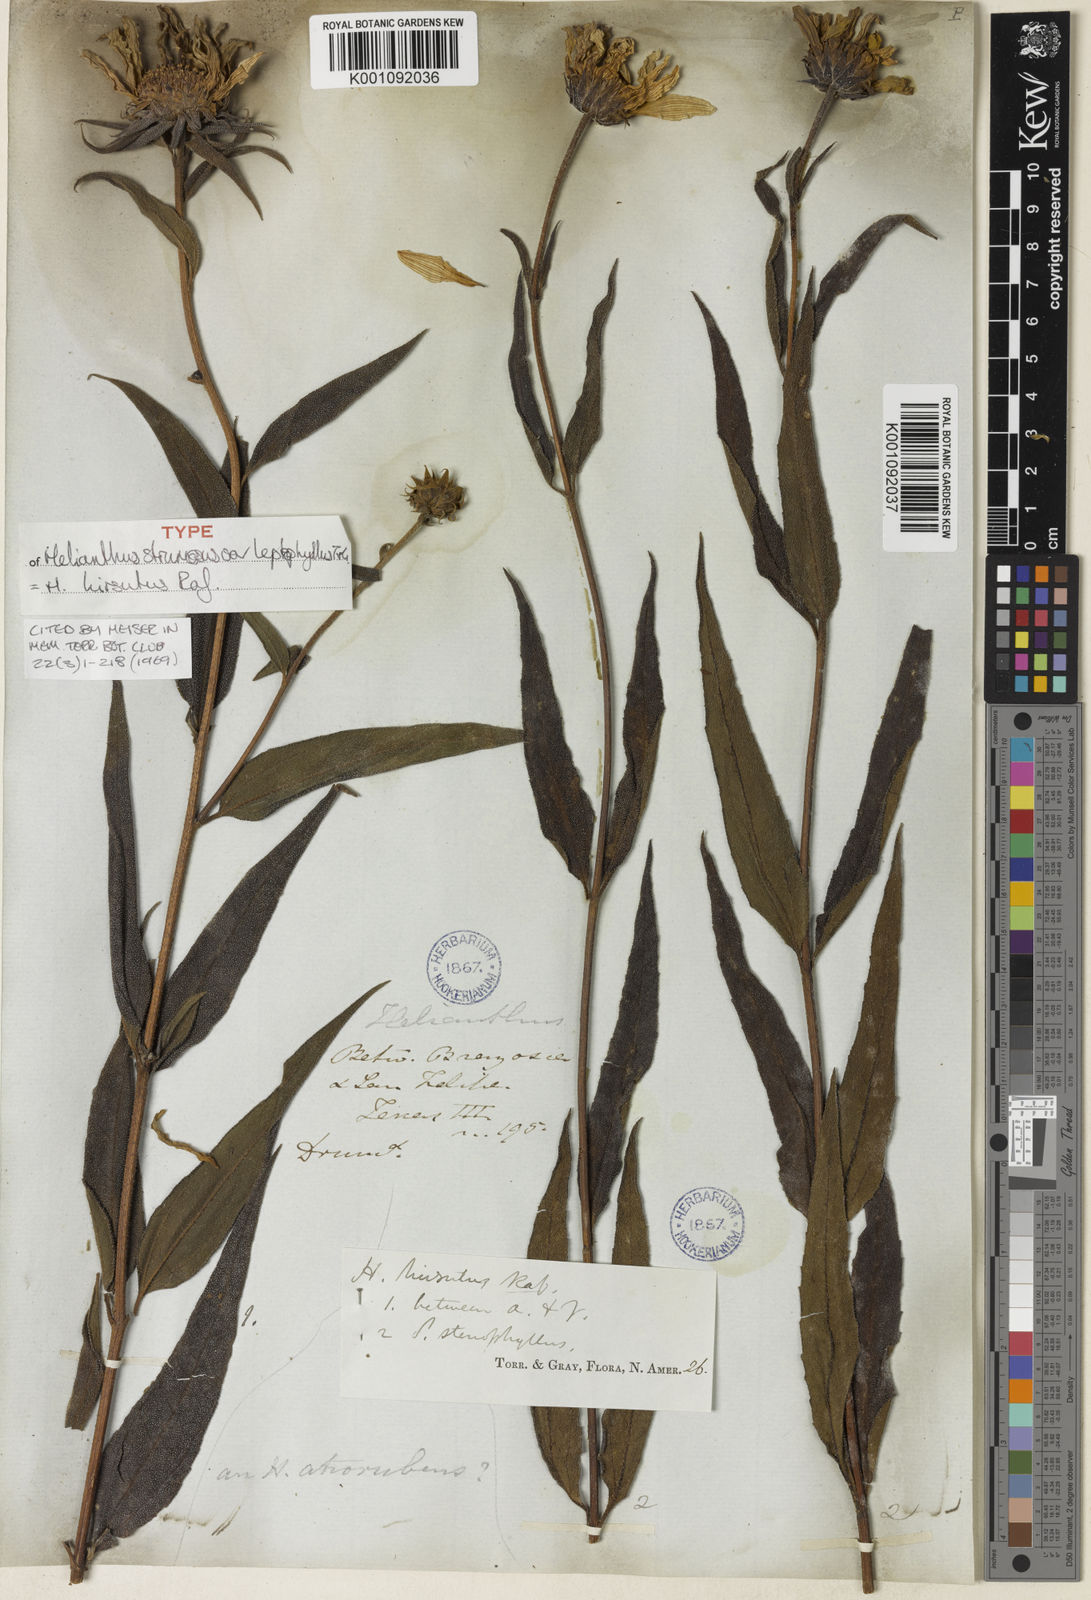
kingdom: Plantae
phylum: Tracheophyta
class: Magnoliopsida
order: Asterales
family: Asteraceae
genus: Helianthus
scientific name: Helianthus hirsutus
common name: Hairy sunflower
